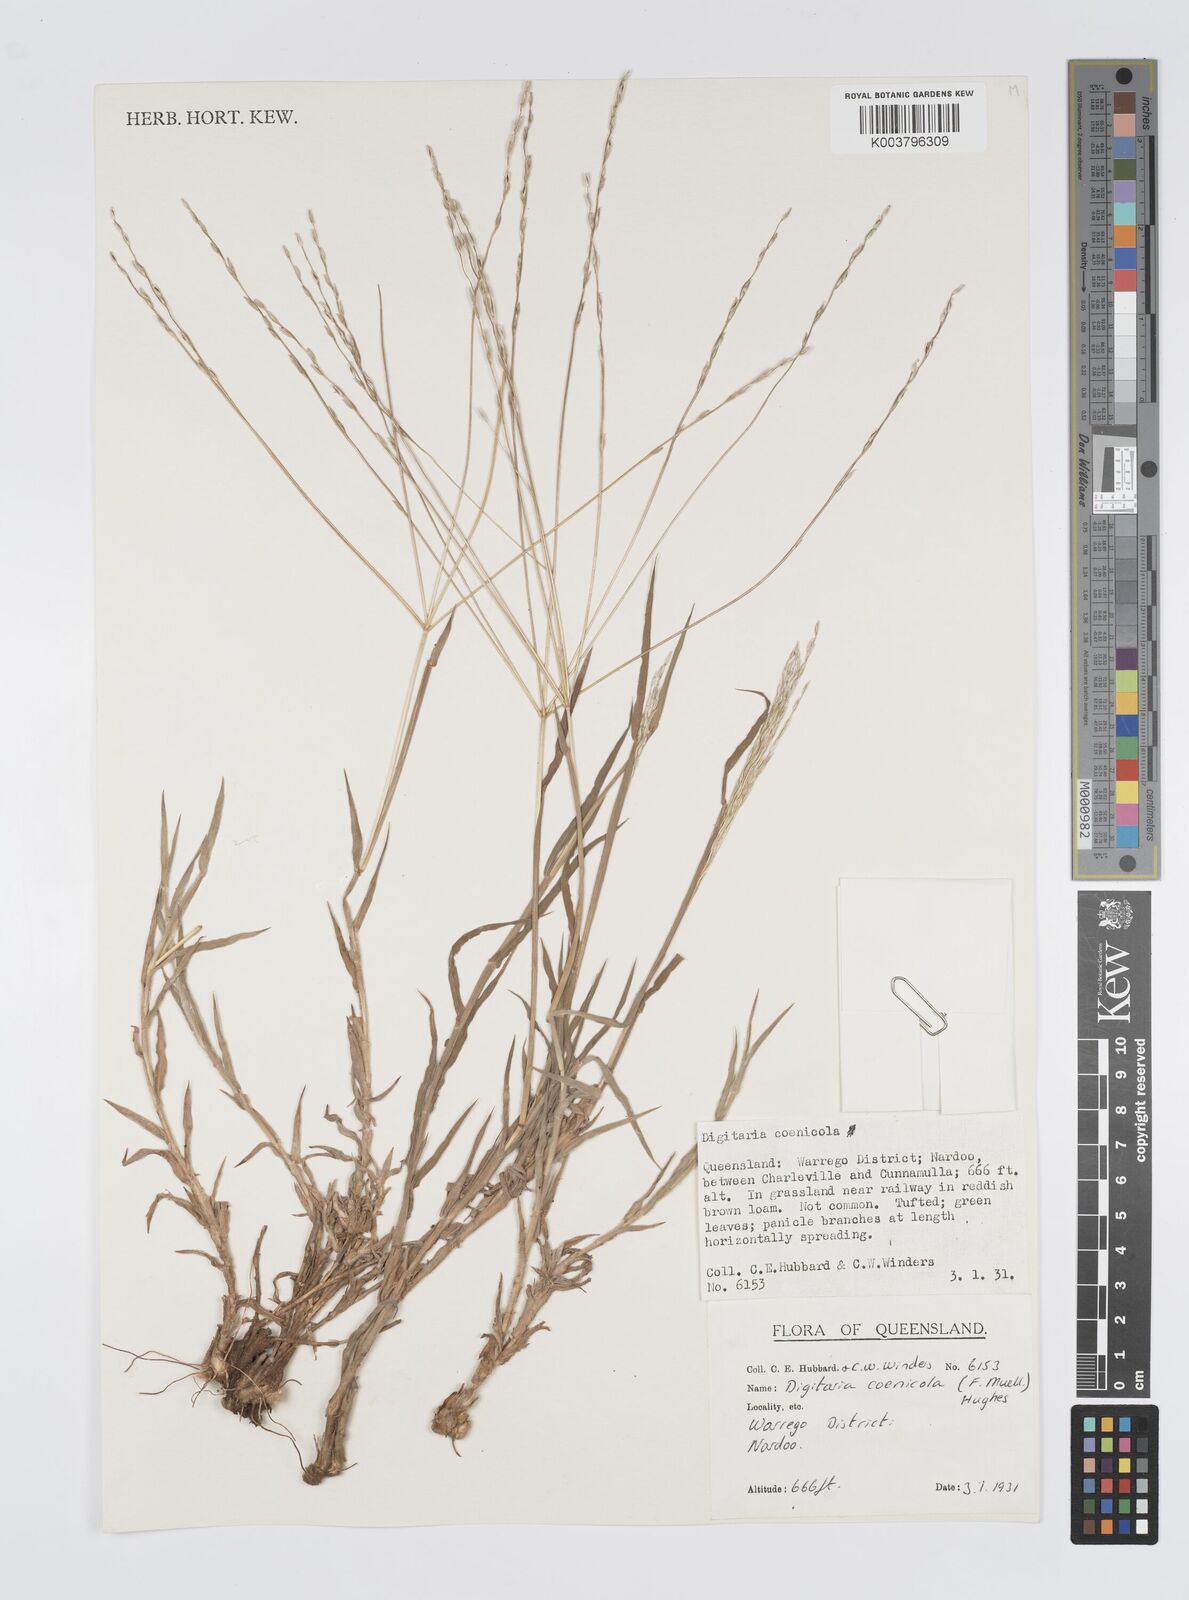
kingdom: Plantae
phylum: Tracheophyta
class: Liliopsida
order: Poales
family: Poaceae
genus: Digitaria
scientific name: Digitaria coenicola
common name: Kanta grass
